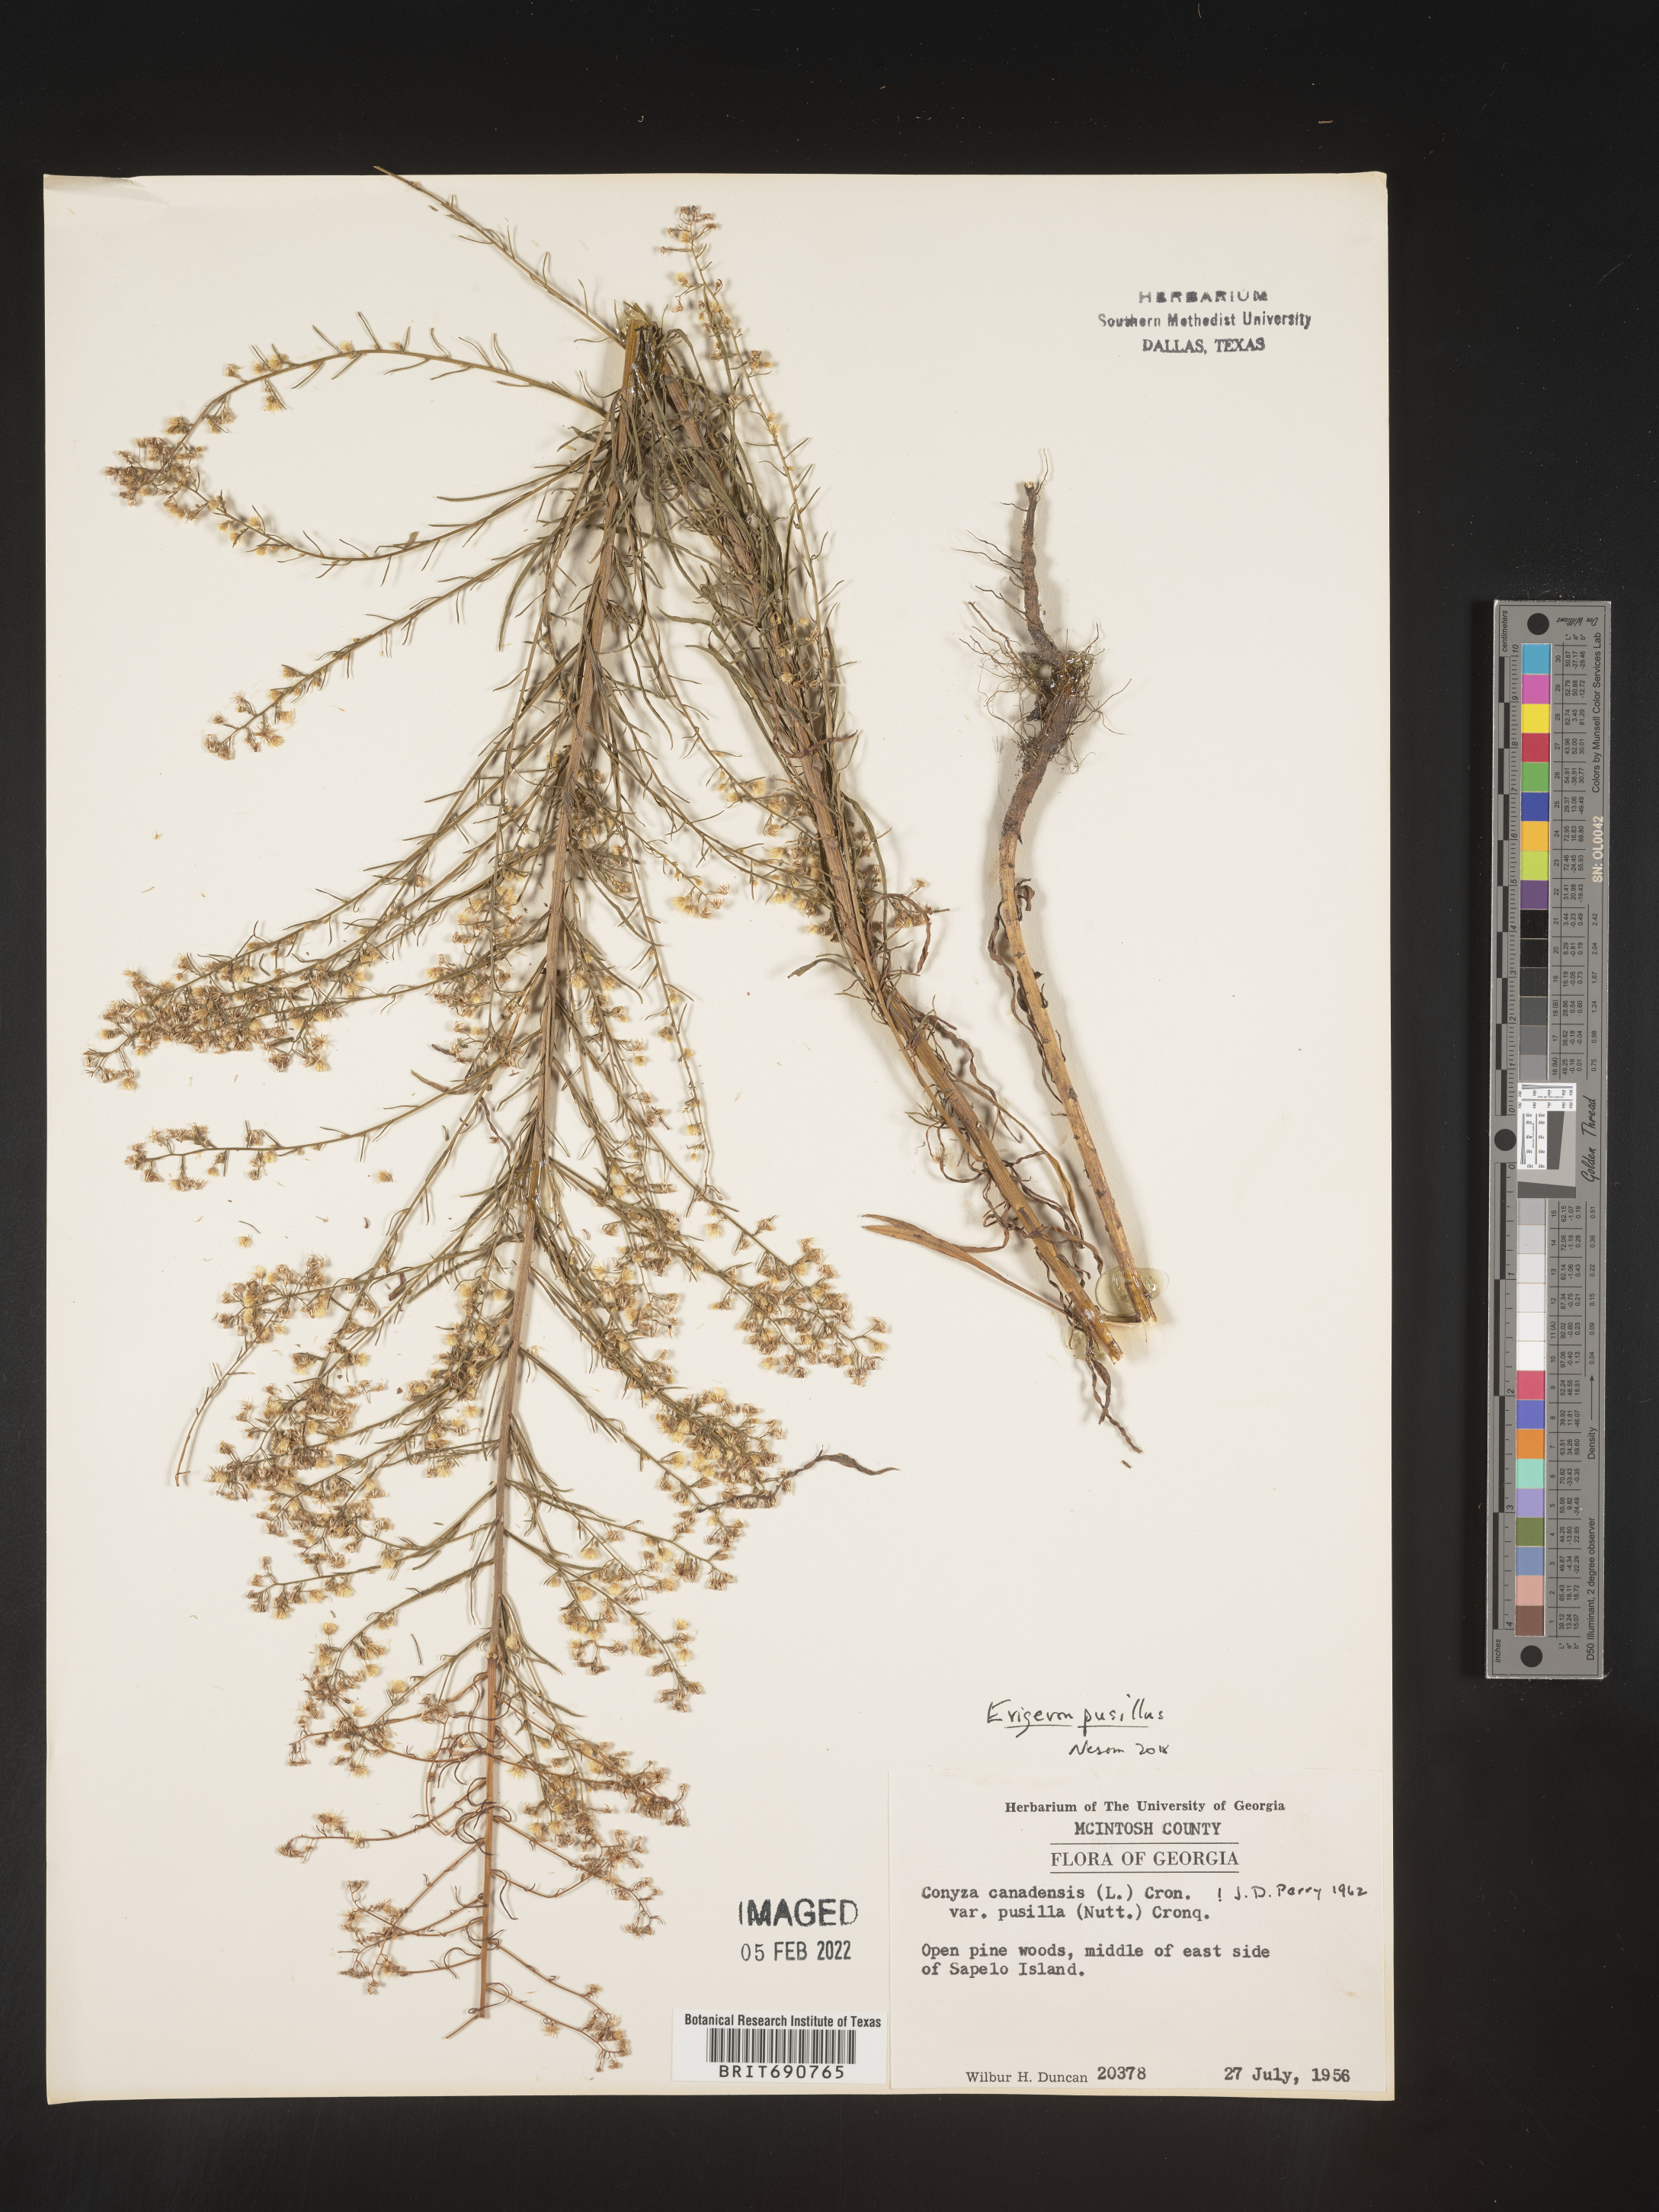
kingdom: Plantae
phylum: Tracheophyta
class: Magnoliopsida
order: Asterales
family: Asteraceae
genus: Erigeron
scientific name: Erigeron canadensis
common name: Canadian fleabane
